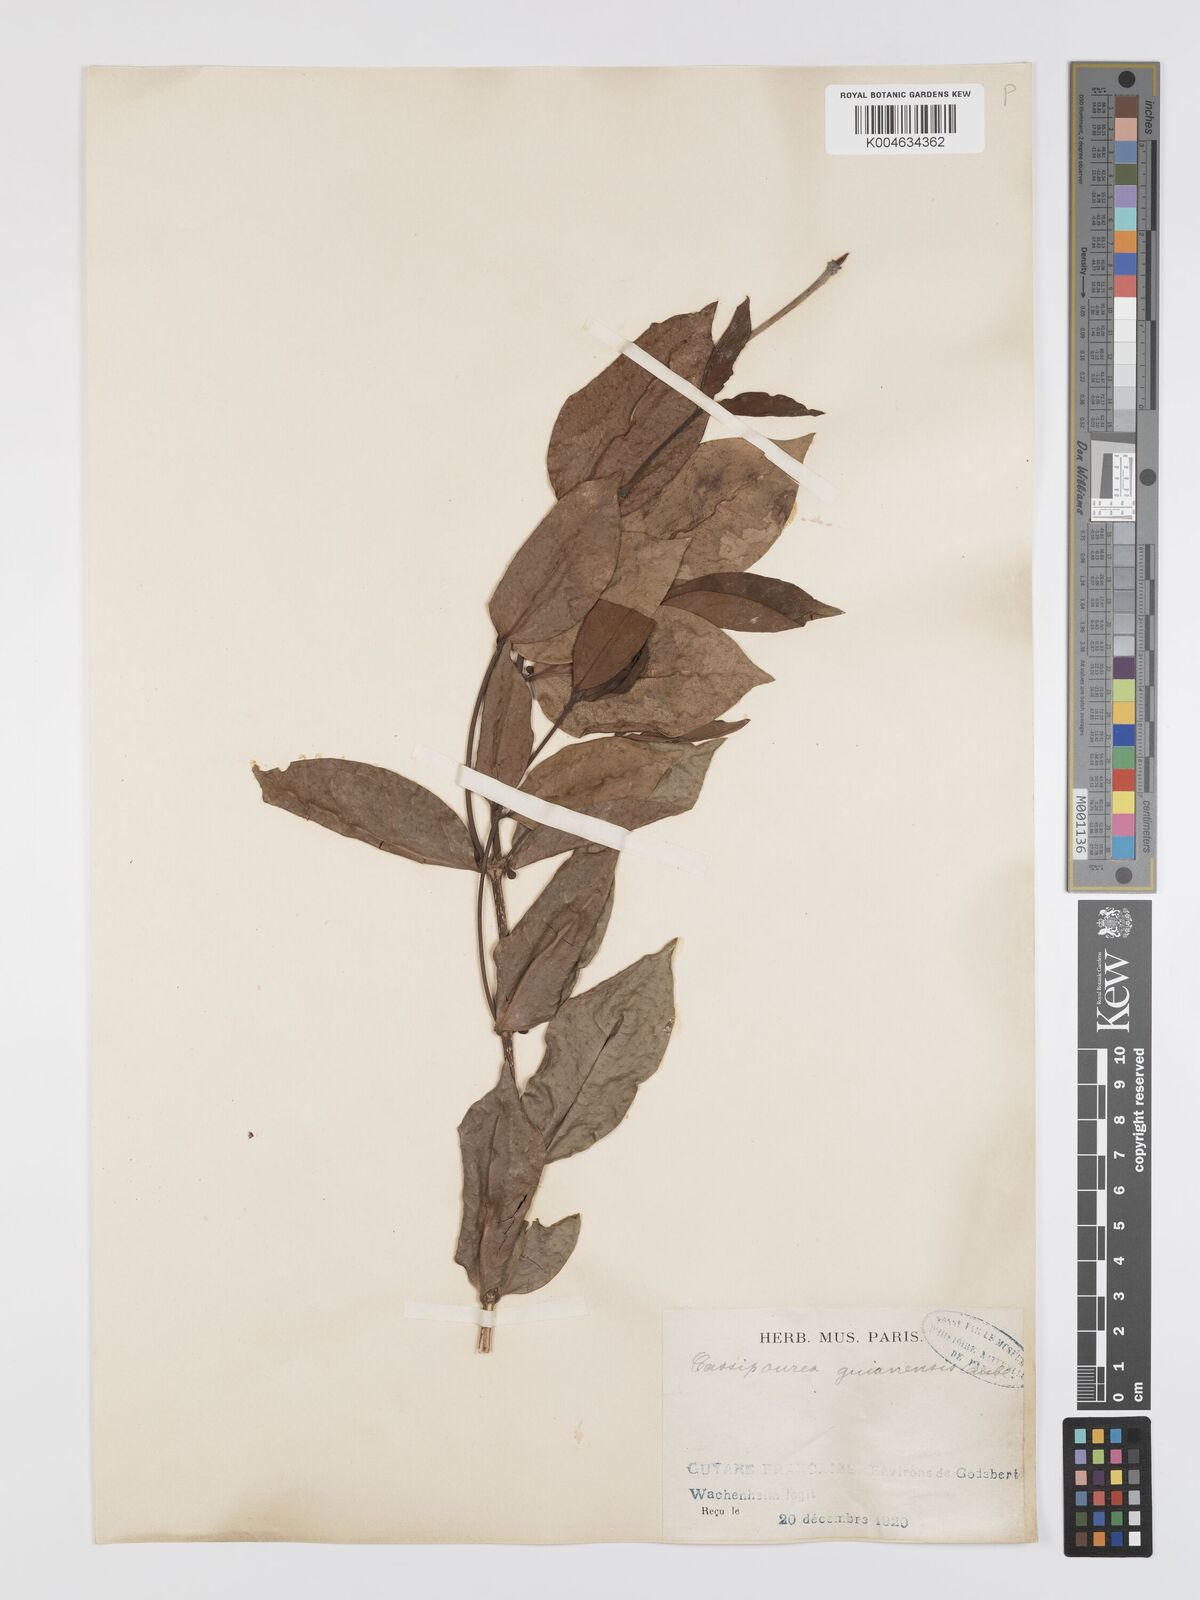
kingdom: Plantae
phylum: Tracheophyta
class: Magnoliopsida
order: Malpighiales
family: Rhizophoraceae
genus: Cassipourea
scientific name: Cassipourea guianensis
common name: Bastard waterwood
